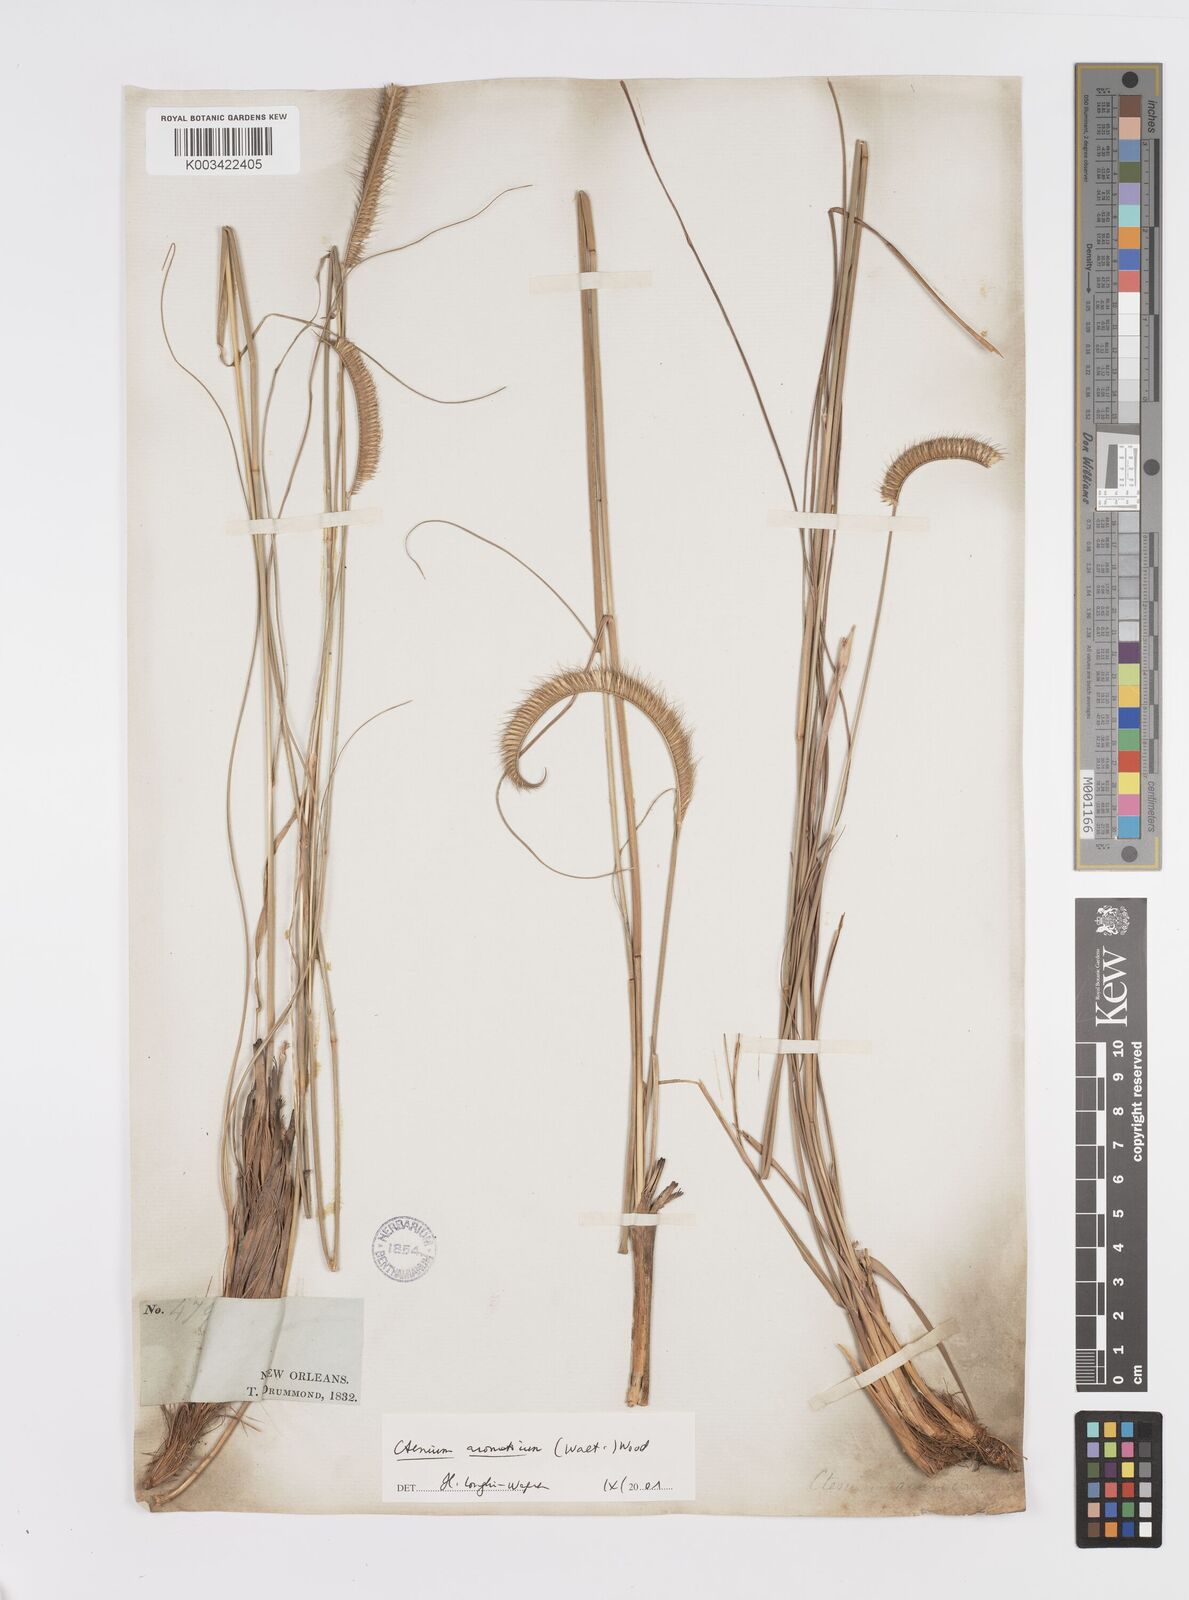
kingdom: Plantae
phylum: Tracheophyta
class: Liliopsida
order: Poales
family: Poaceae
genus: Ctenium
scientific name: Ctenium aromaticum
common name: Toothache grass
